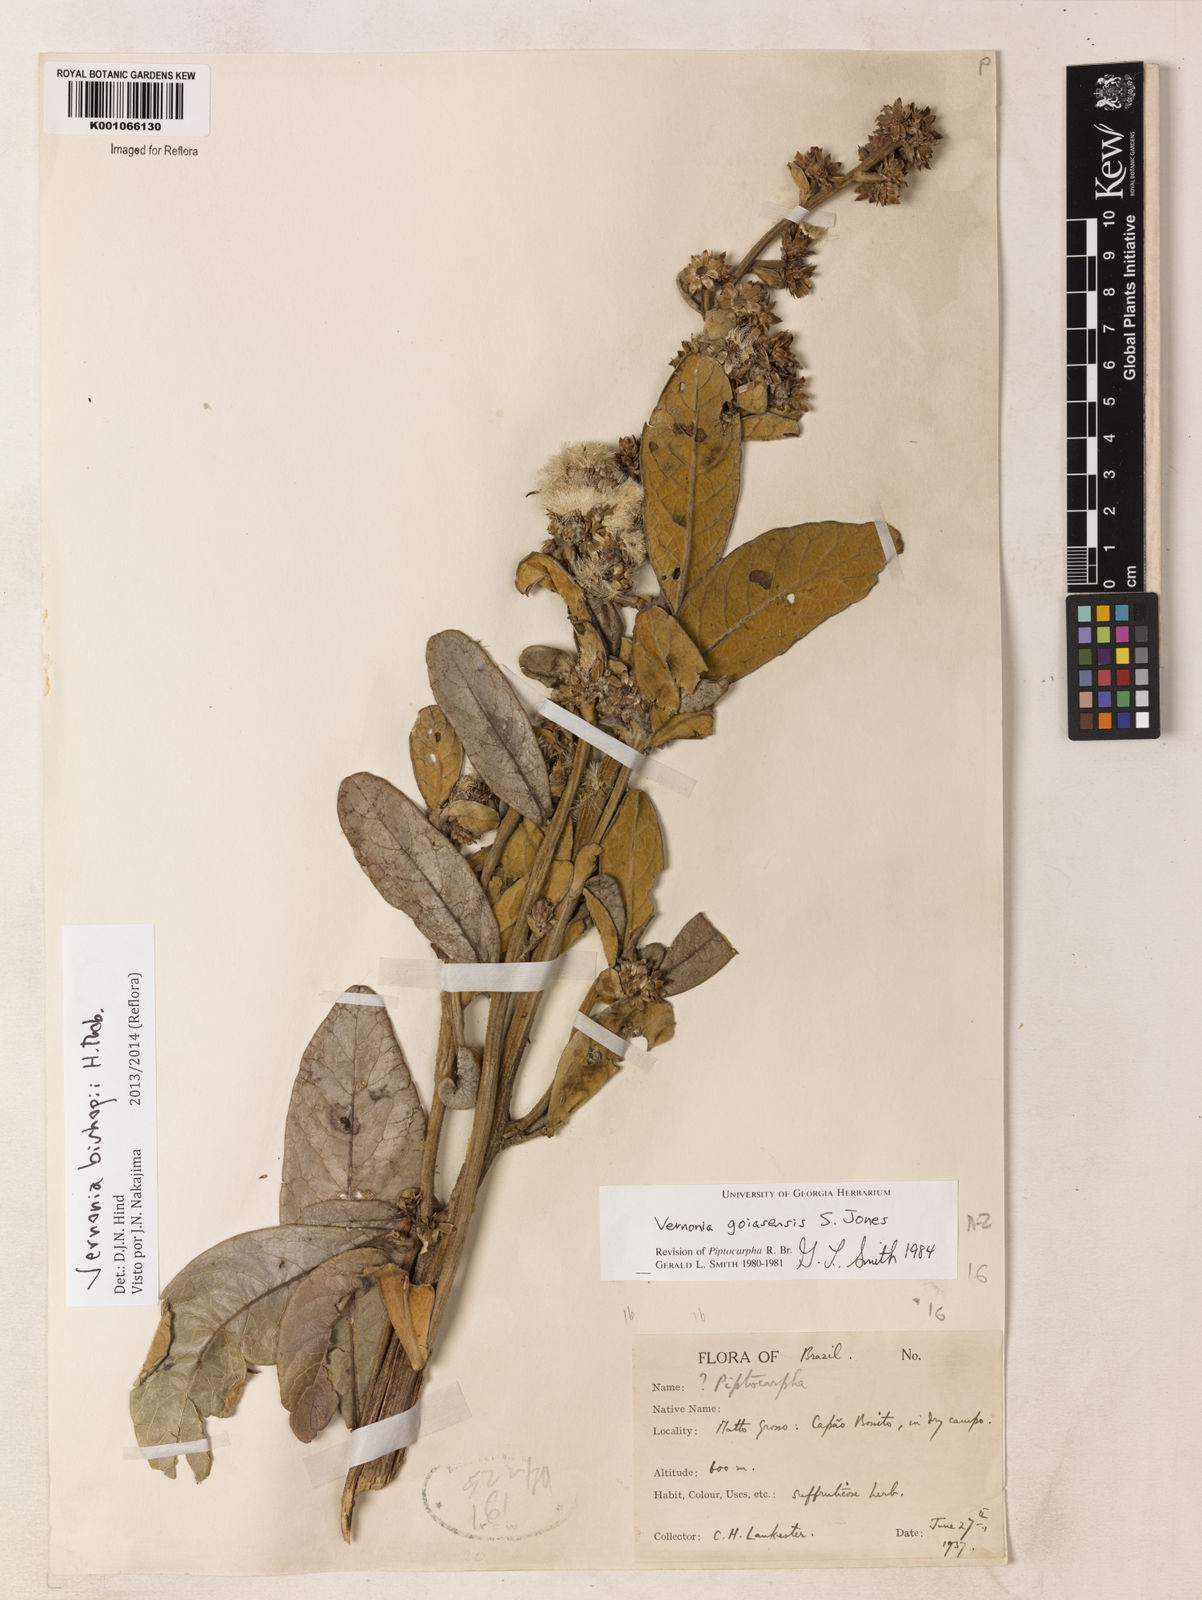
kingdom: Plantae
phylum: Tracheophyta
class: Magnoliopsida
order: Asterales
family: Asteraceae
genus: Lessingianthus
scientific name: Lessingianthus bishopii
